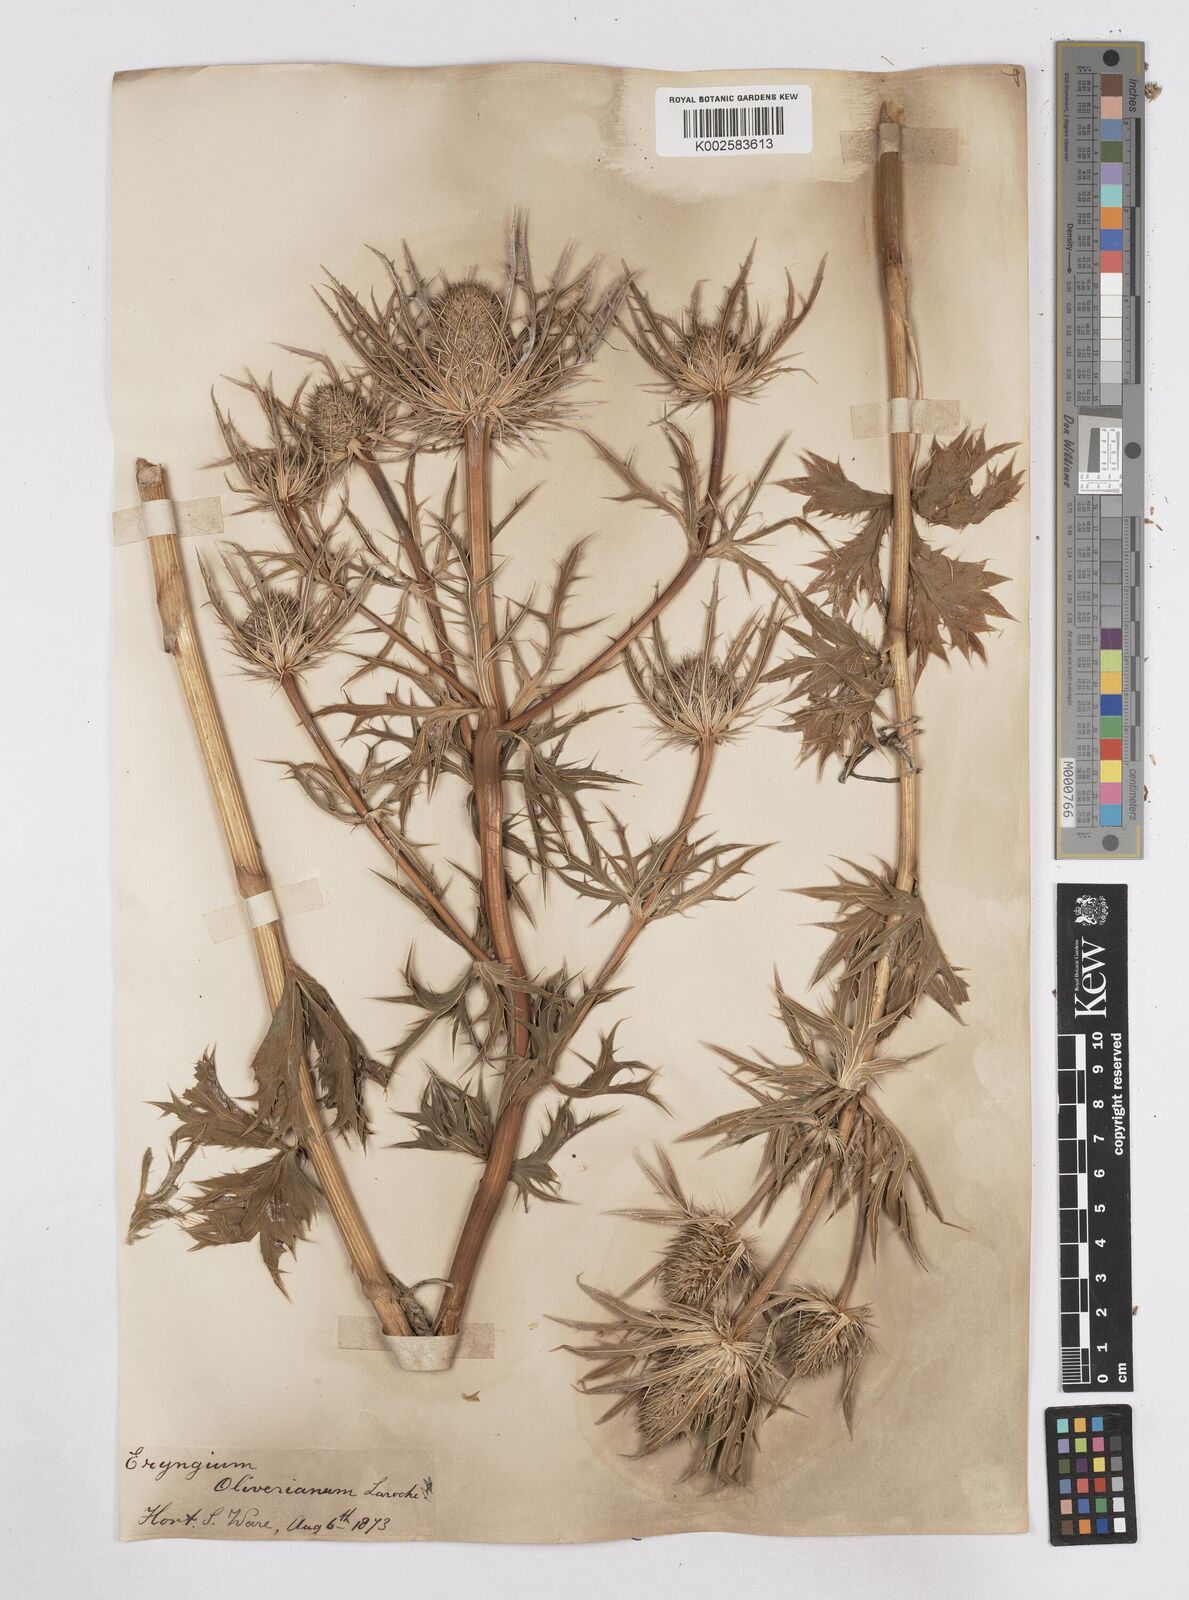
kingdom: Plantae
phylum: Tracheophyta
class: Magnoliopsida
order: Apiales
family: Apiaceae
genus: Eryngium
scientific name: Eryngium oliverianum
